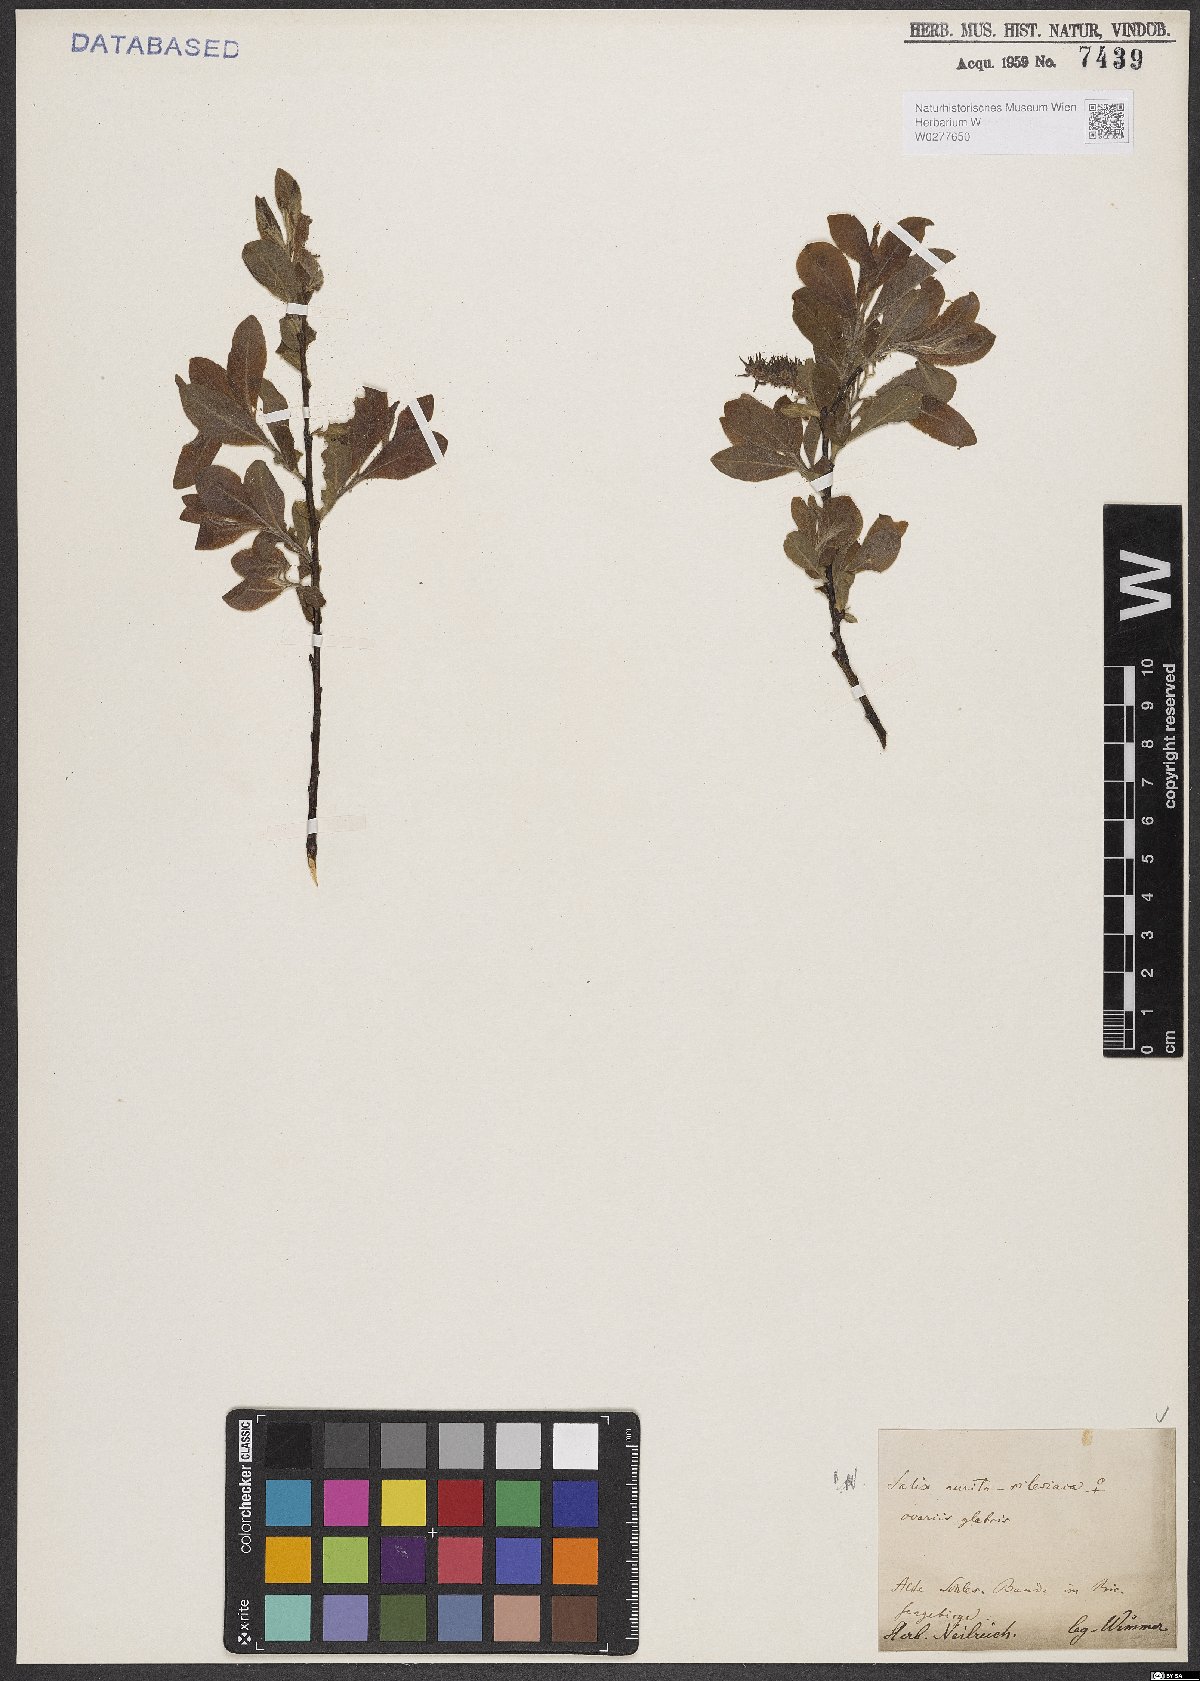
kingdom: Plantae
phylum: Tracheophyta
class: Magnoliopsida
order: Malpighiales
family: Salicaceae
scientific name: Salicaceae
